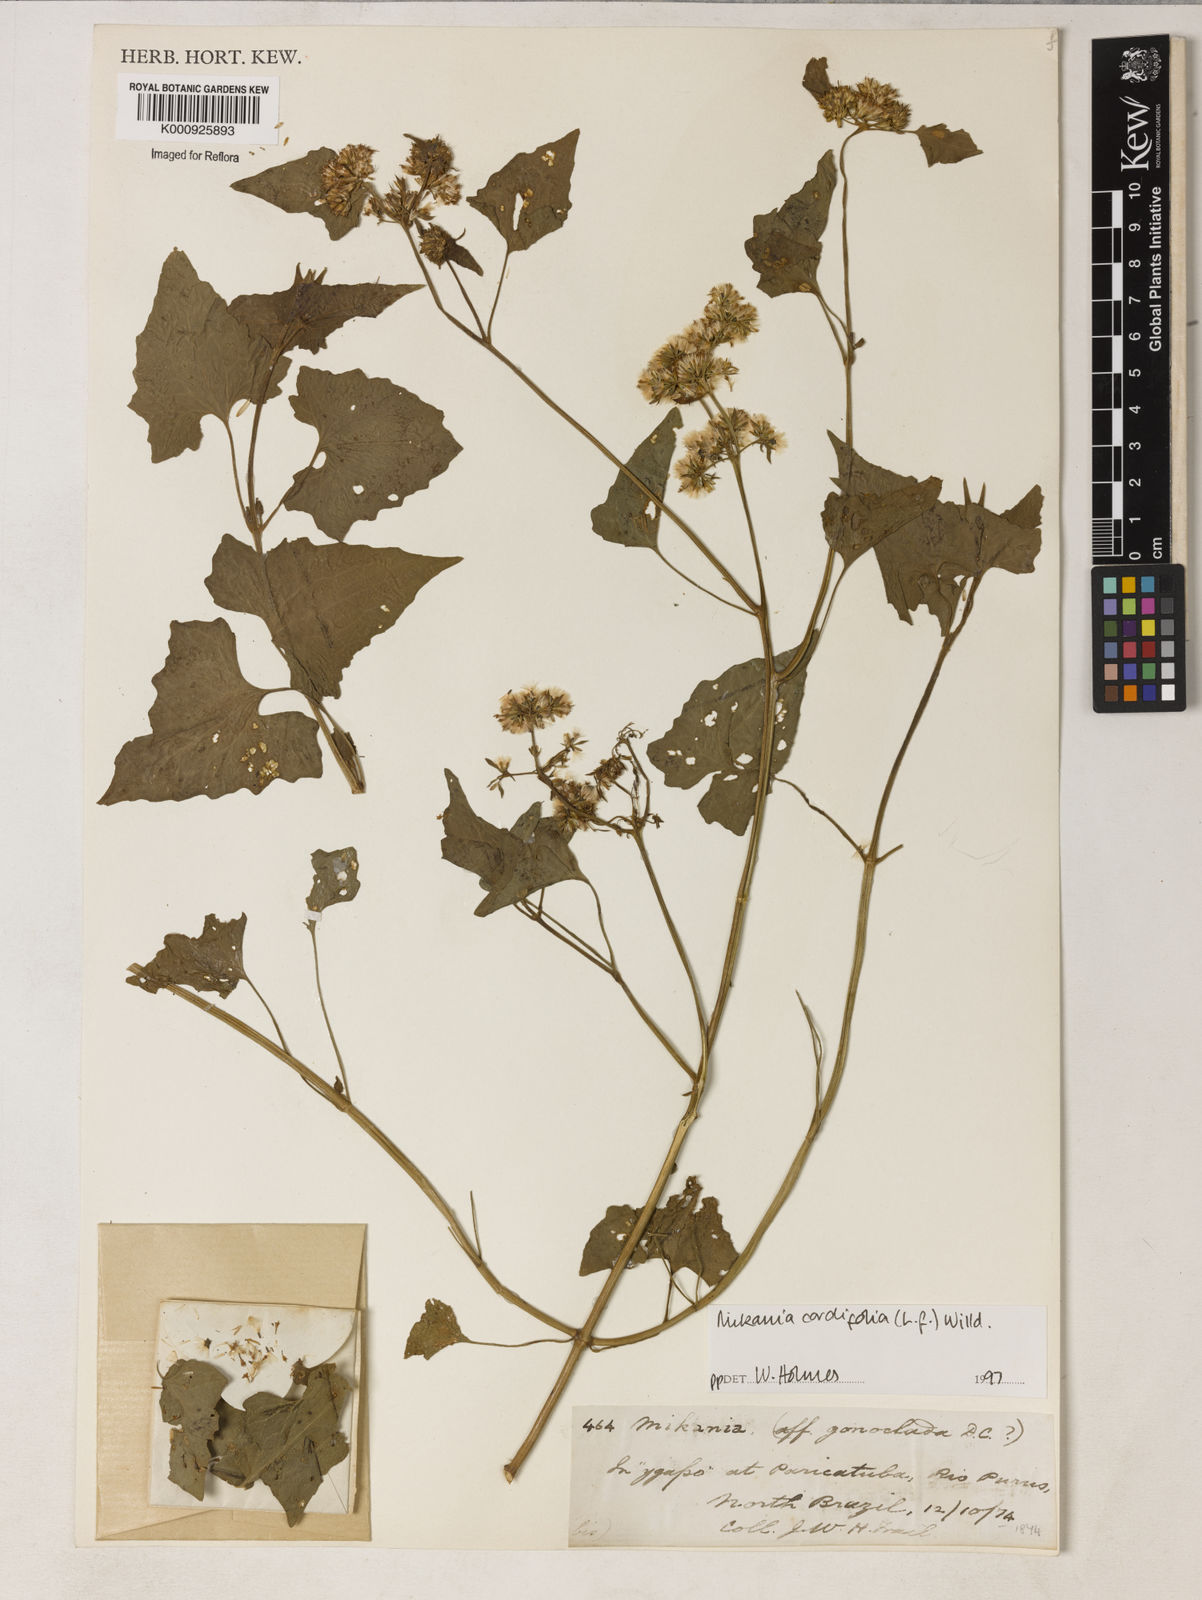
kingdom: Plantae
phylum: Tracheophyta
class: Magnoliopsida
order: Asterales
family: Asteraceae
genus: Mikania
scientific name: Mikania
